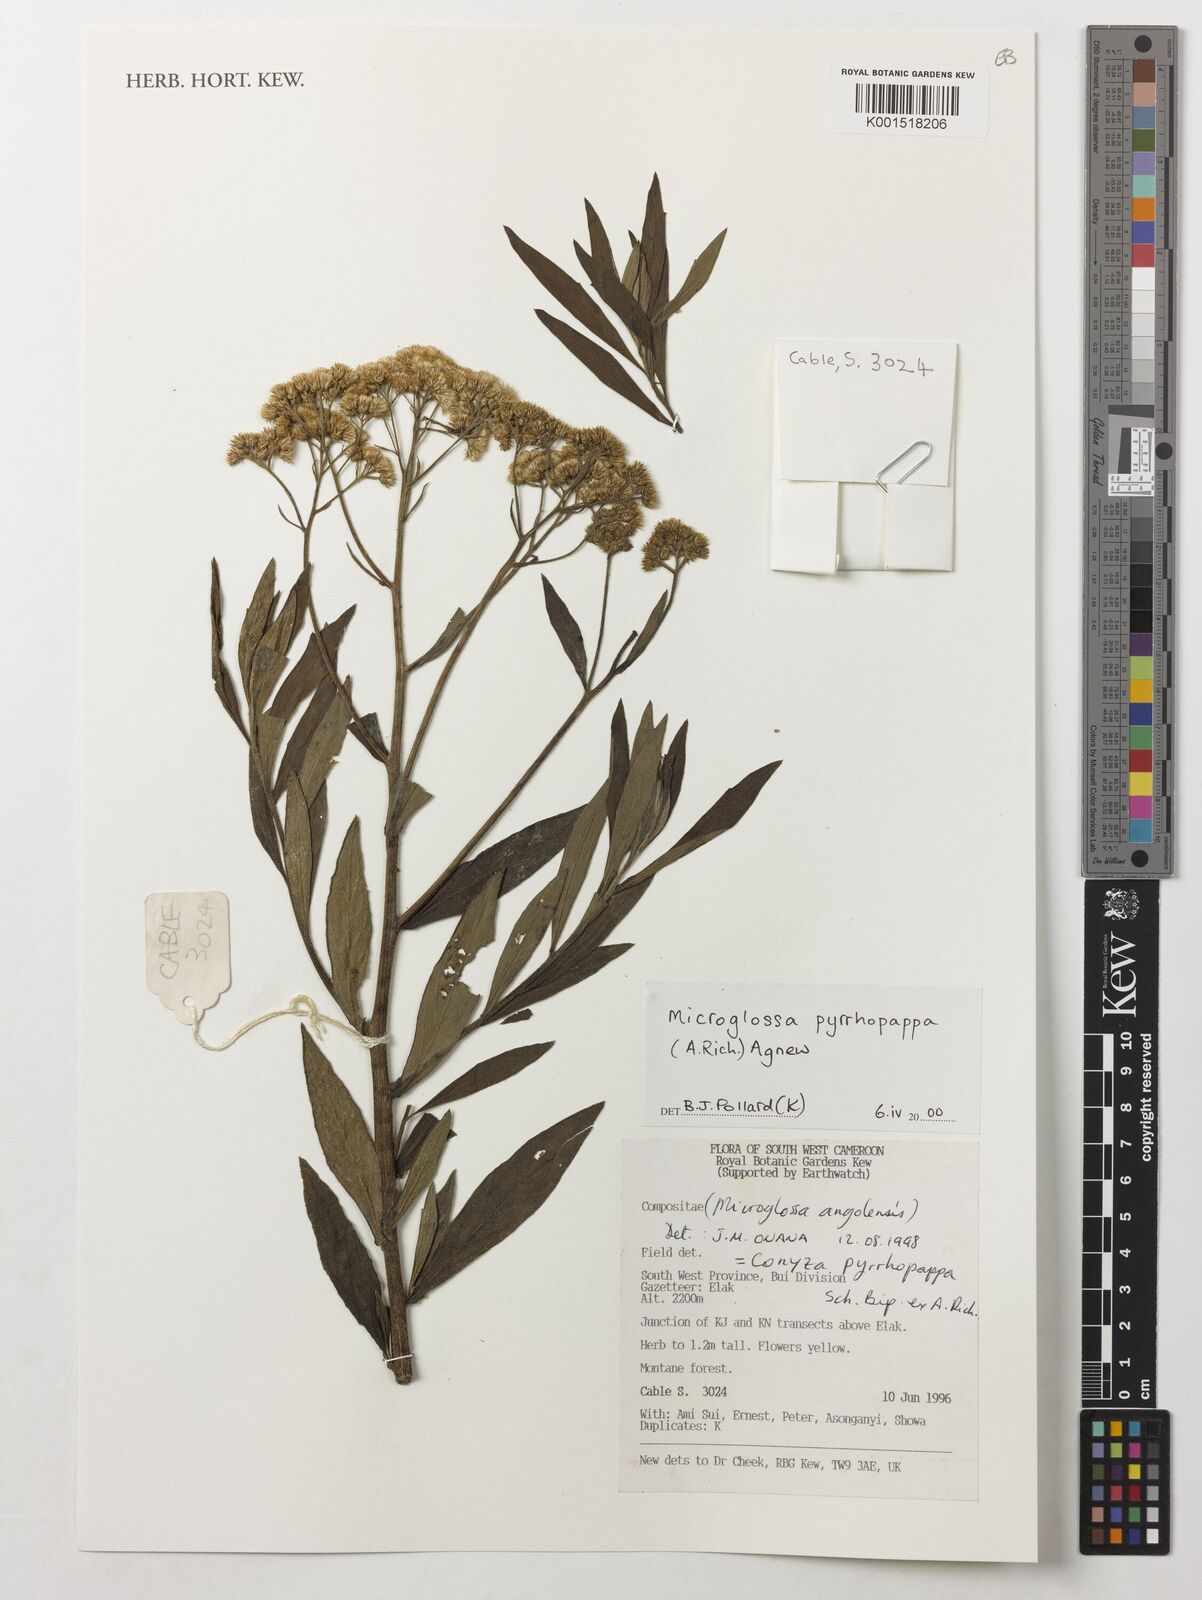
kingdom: Plantae
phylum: Tracheophyta
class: Magnoliopsida
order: Asterales
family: Asteraceae
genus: Microglossa
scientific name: Microglossa pyrrhopappa
